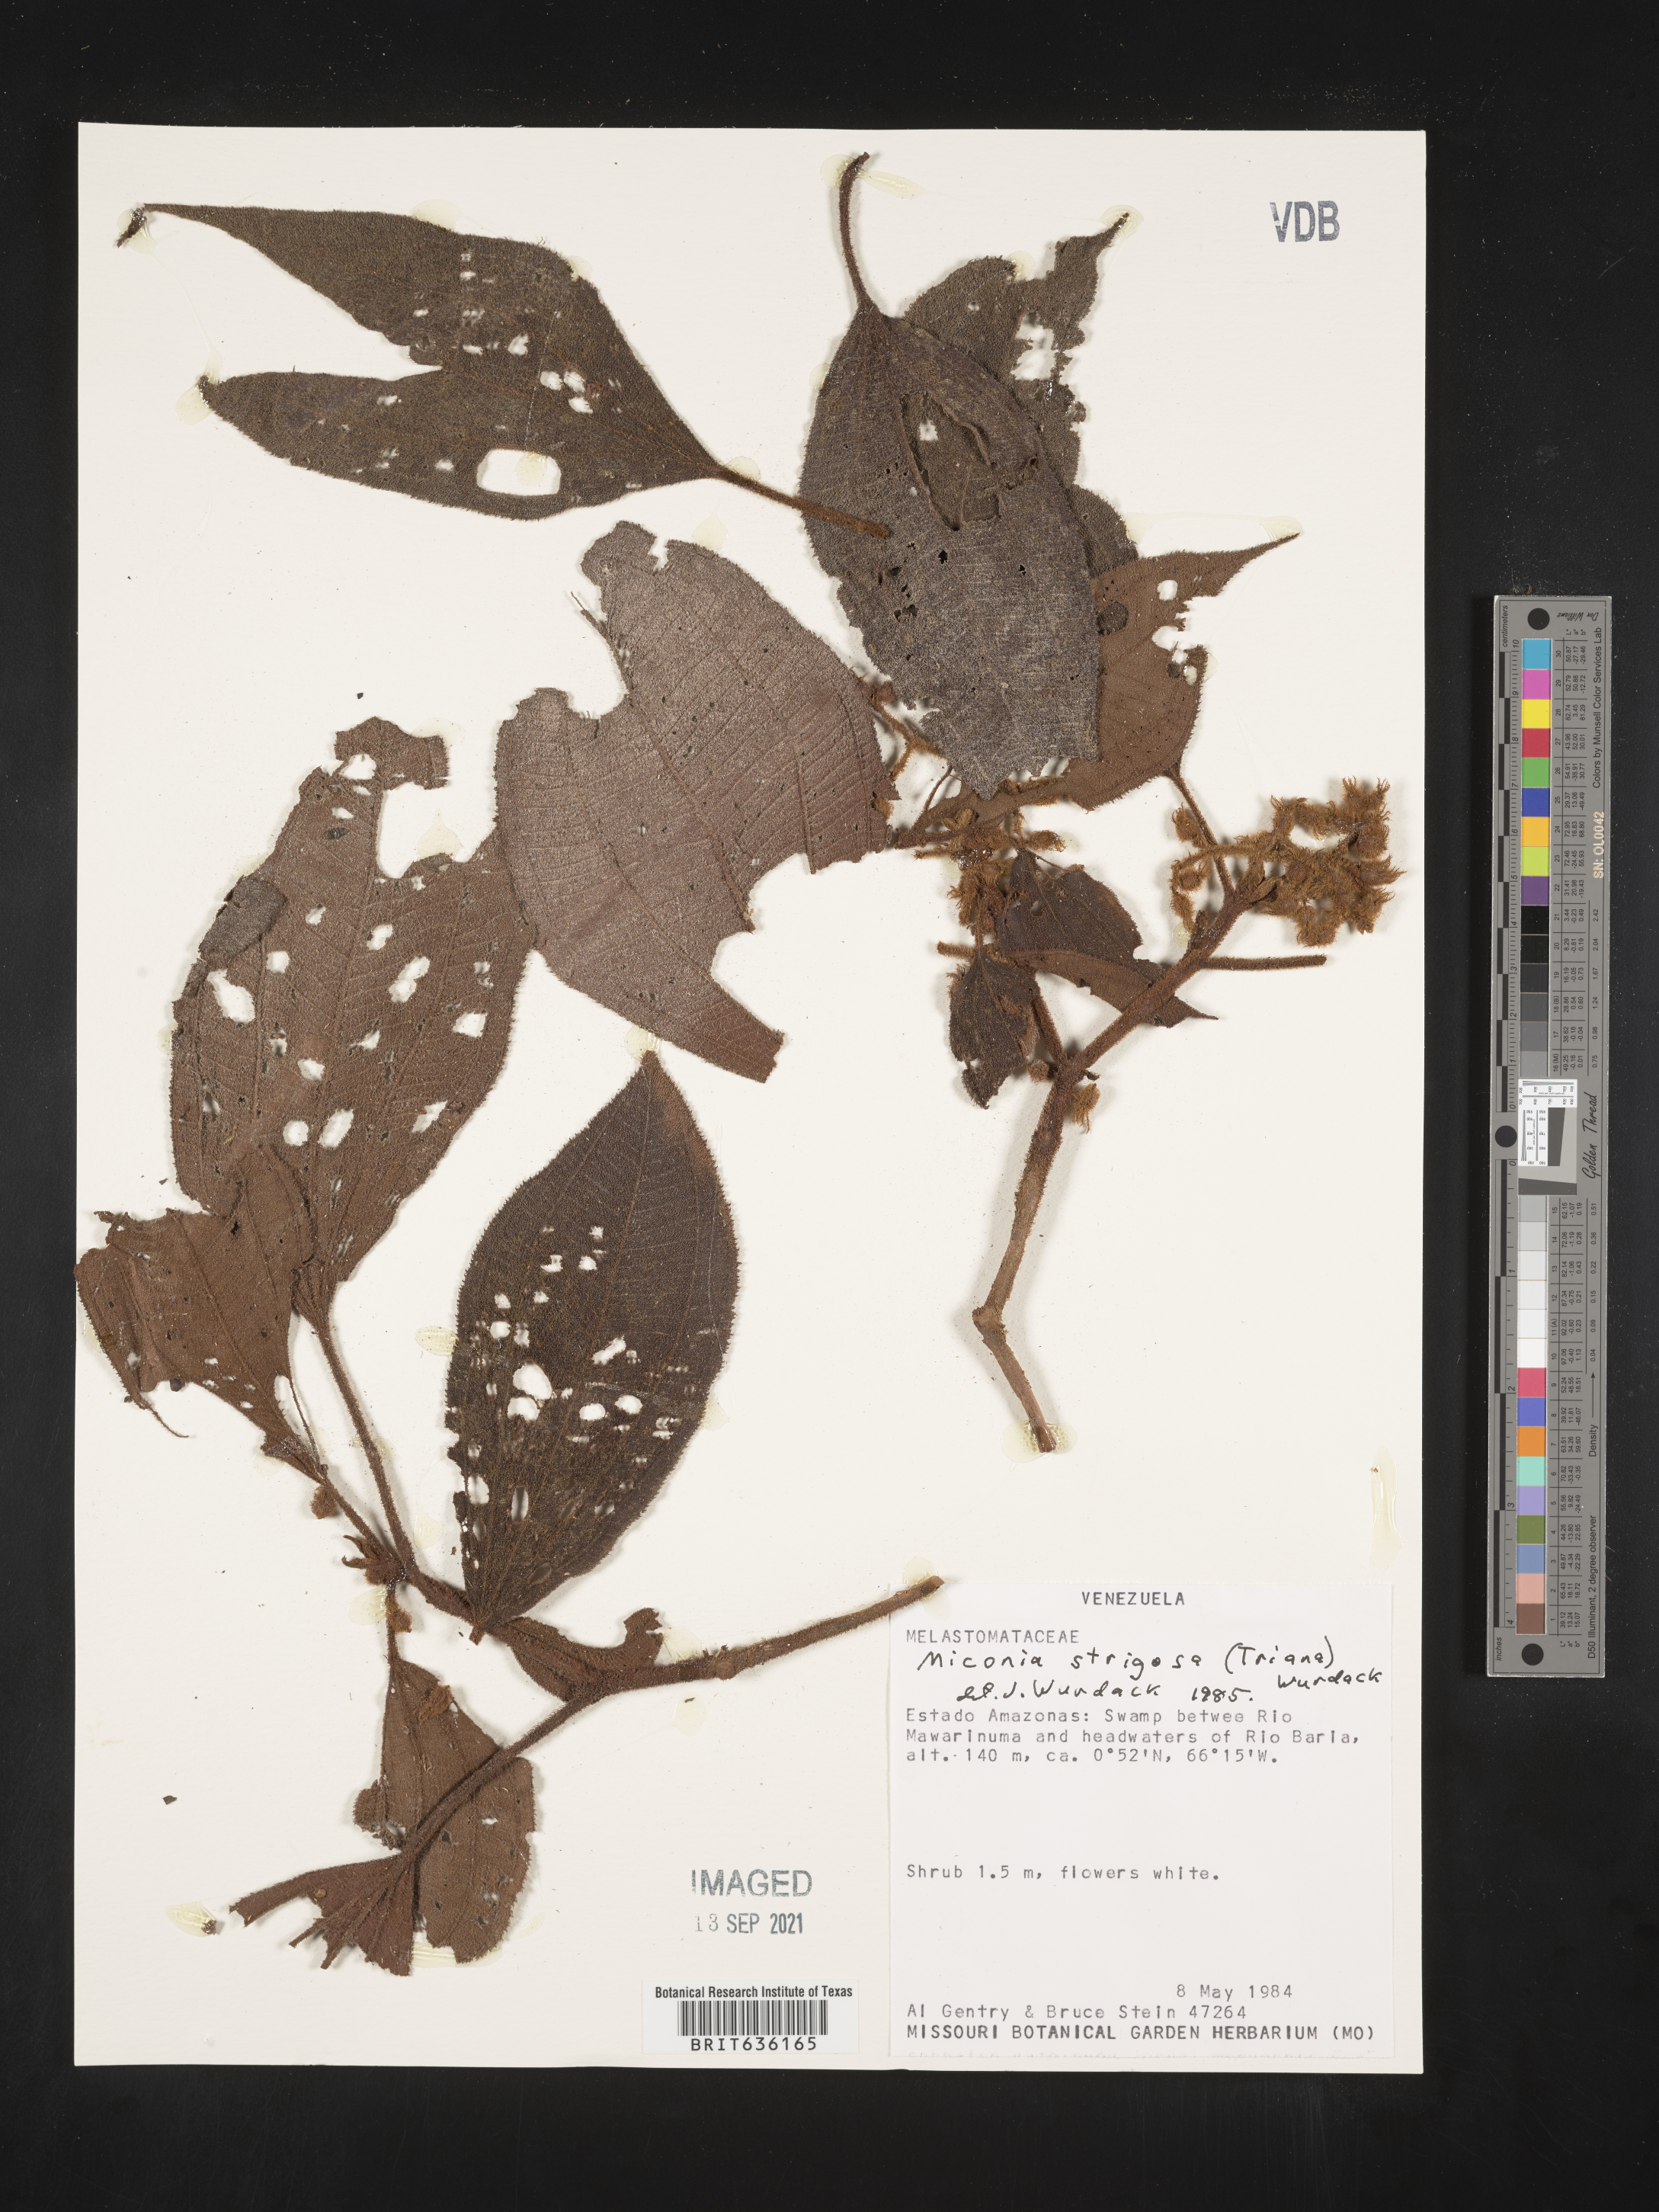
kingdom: Plantae
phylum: Tracheophyta
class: Magnoliopsida
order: Myrtales
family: Melastomataceae
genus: Miconia
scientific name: Miconia
